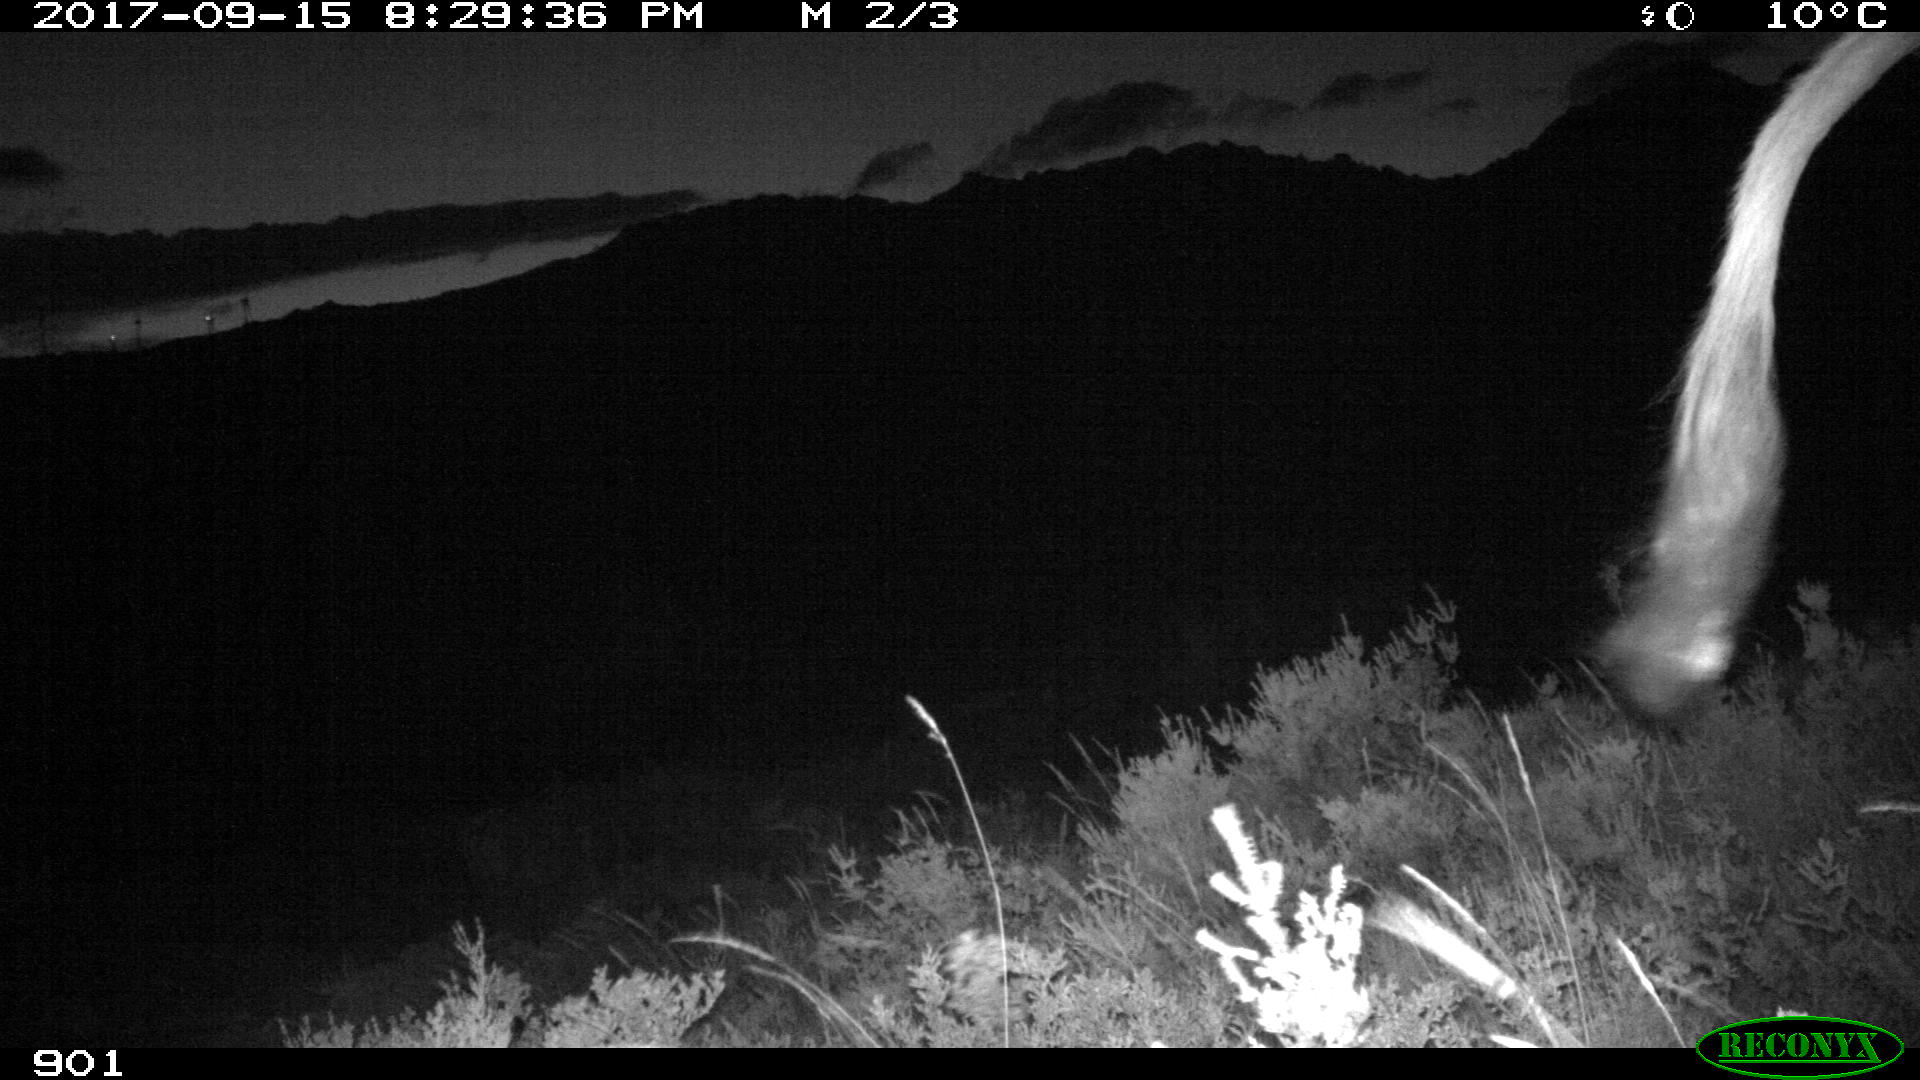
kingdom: Animalia
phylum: Chordata
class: Mammalia
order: Artiodactyla
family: Bovidae
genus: Bos
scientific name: Bos taurus
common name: Domesticated cattle
